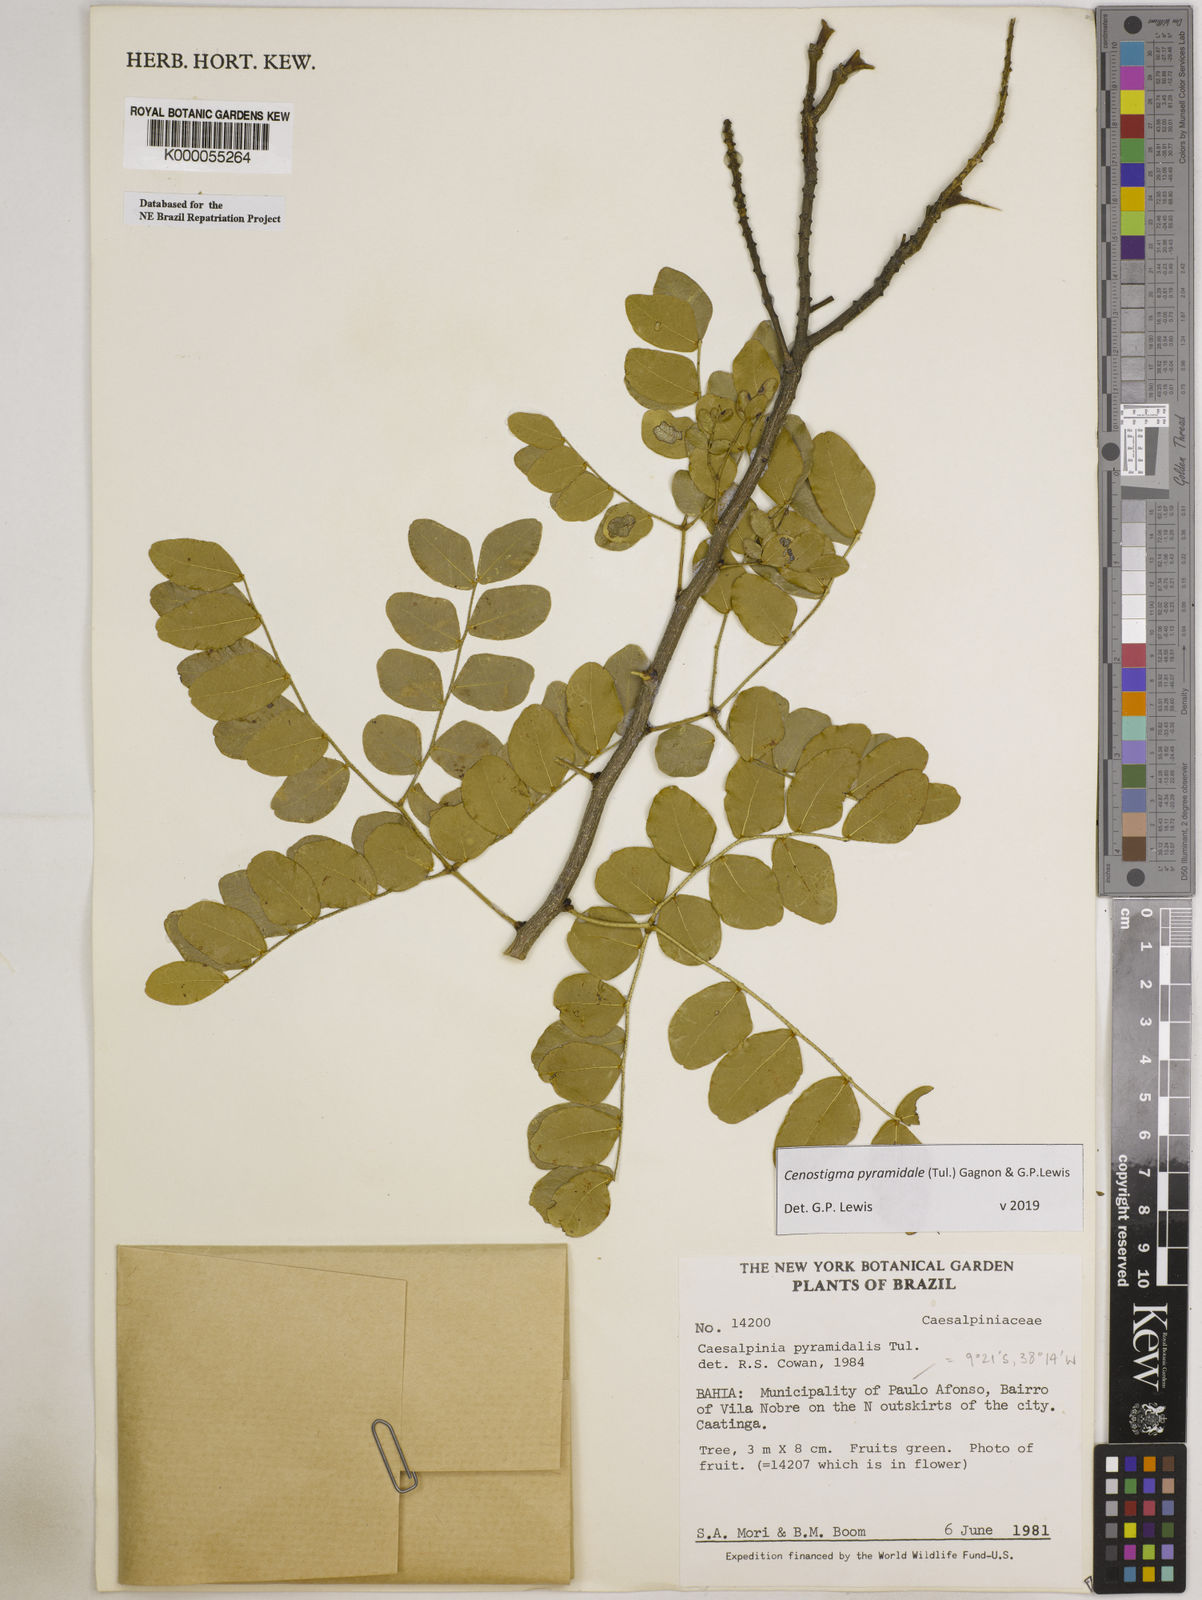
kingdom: Plantae
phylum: Tracheophyta
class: Magnoliopsida
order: Fabales
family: Fabaceae
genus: Cenostigma
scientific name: Cenostigma pyramidale
